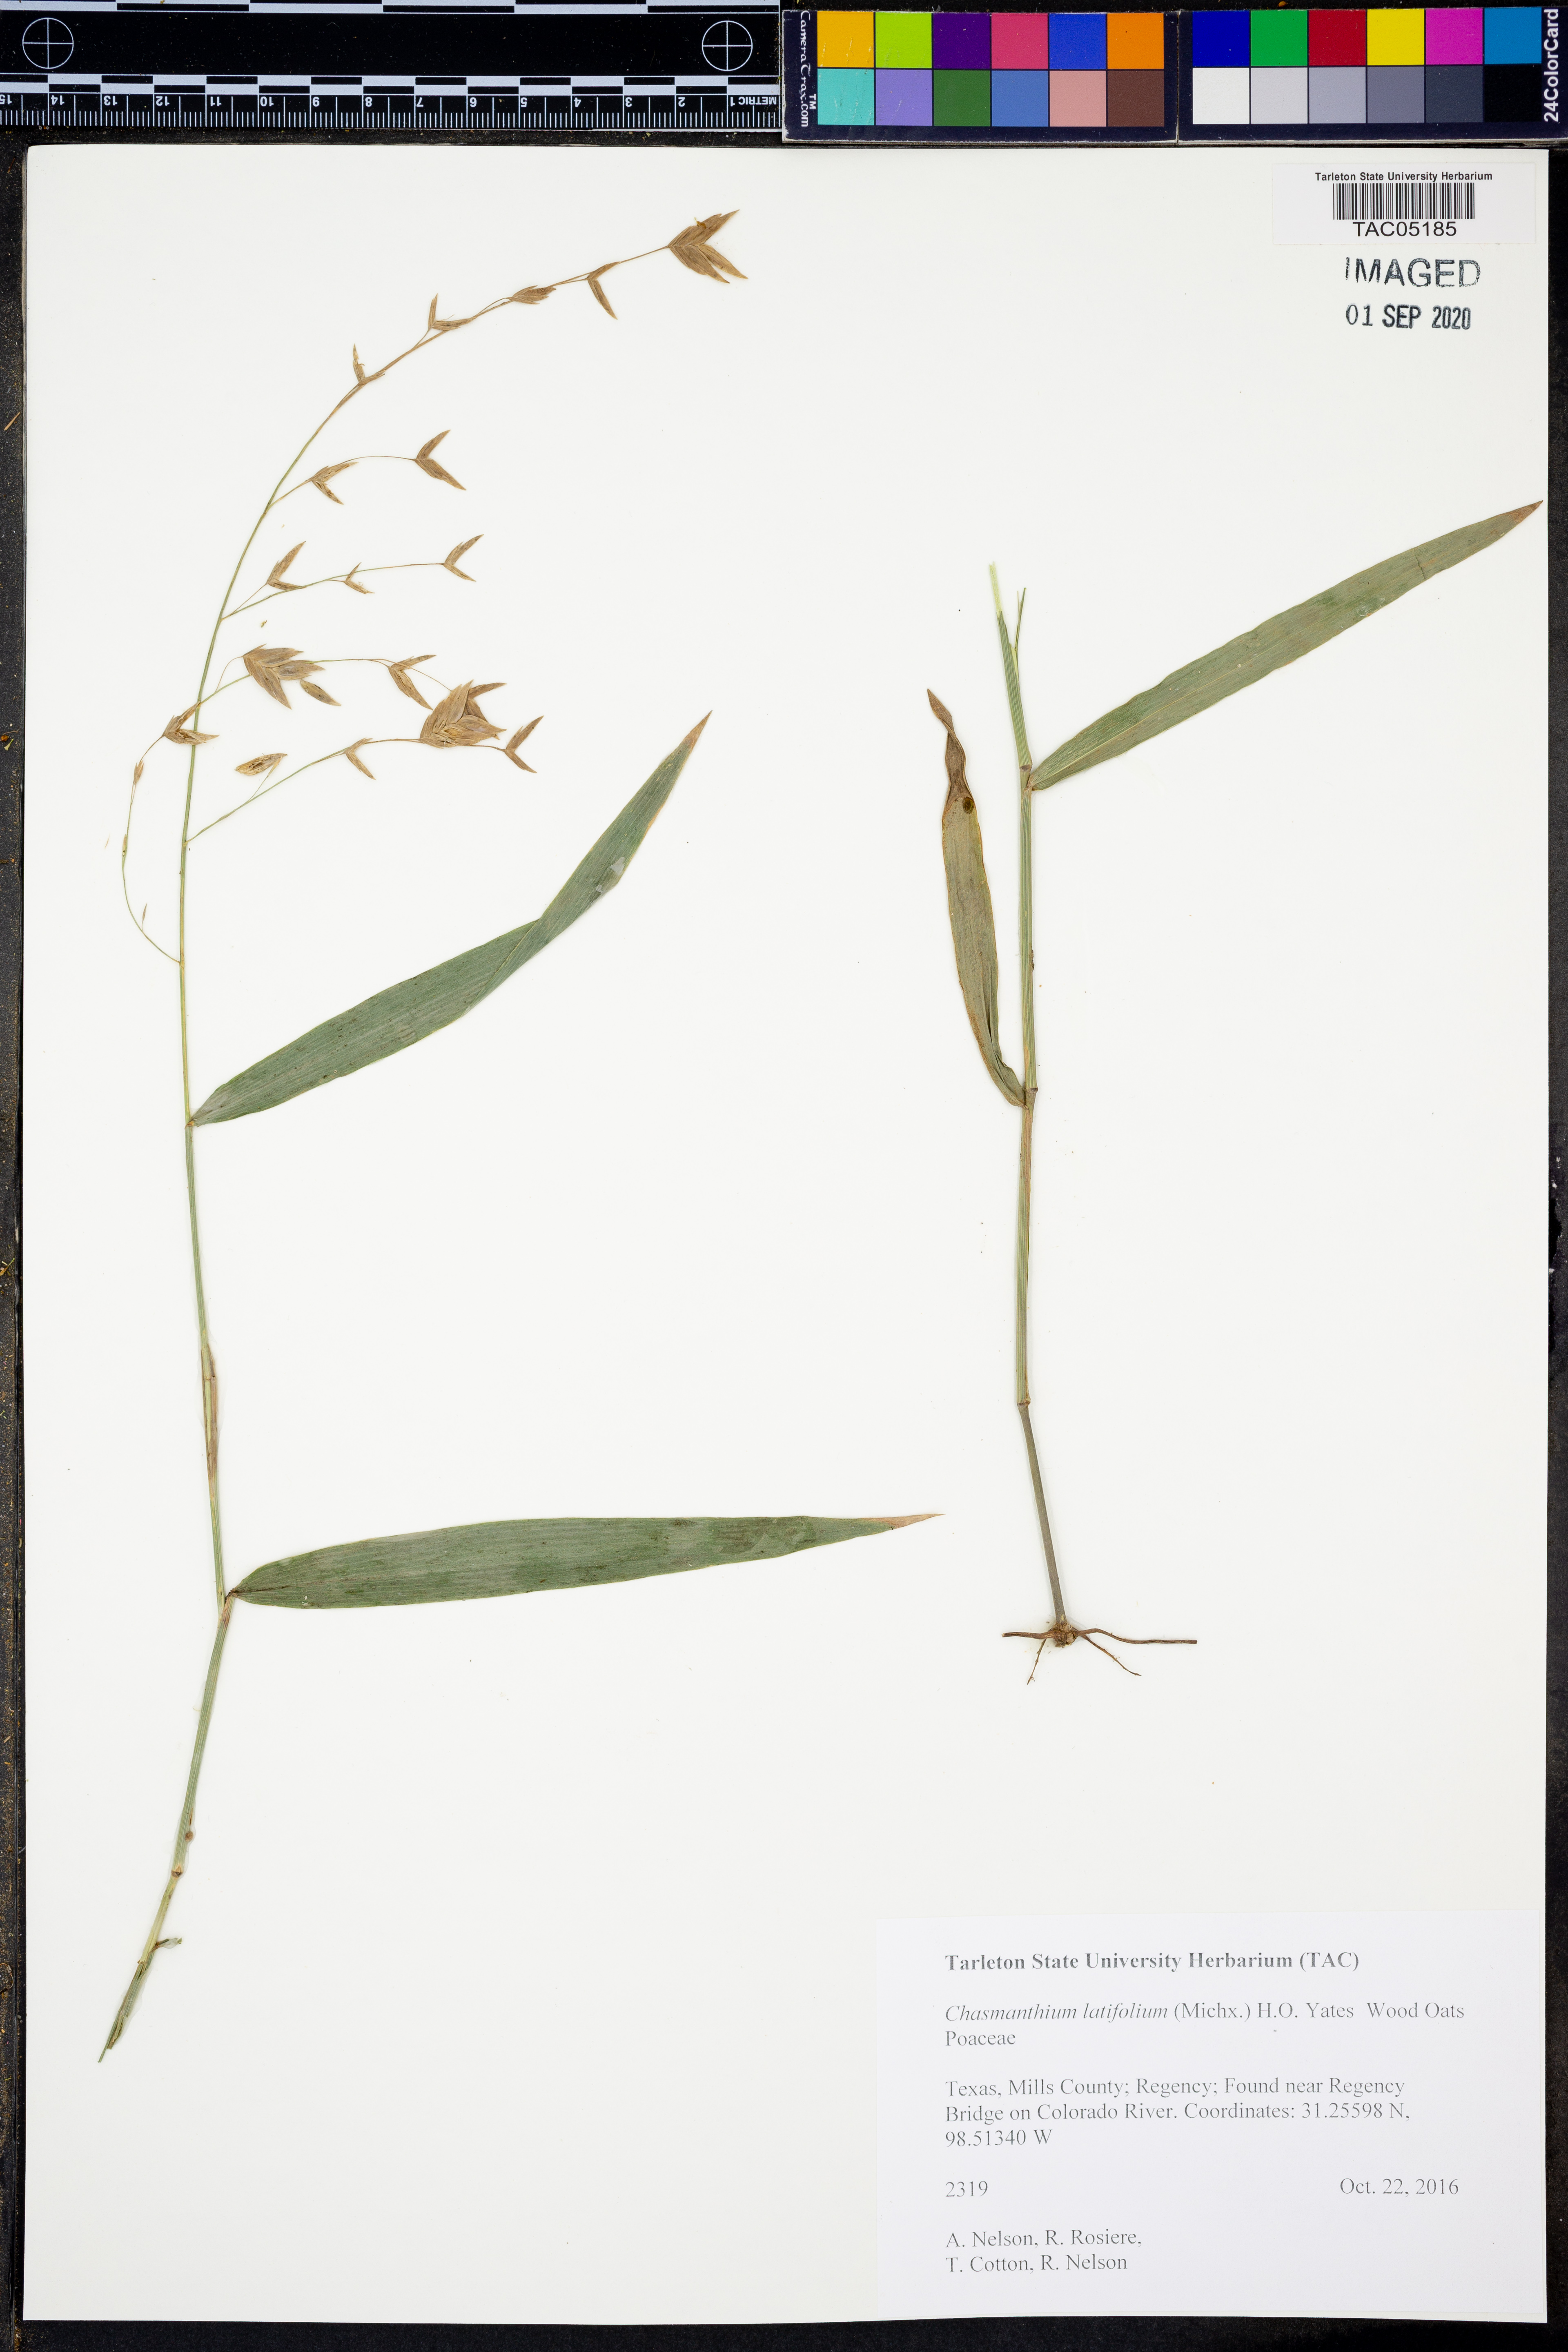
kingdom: Plantae
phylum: Tracheophyta
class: Liliopsida
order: Poales
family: Poaceae
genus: Chasmanthium
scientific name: Chasmanthium latifolium
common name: Broad-leaved chasmanthium
